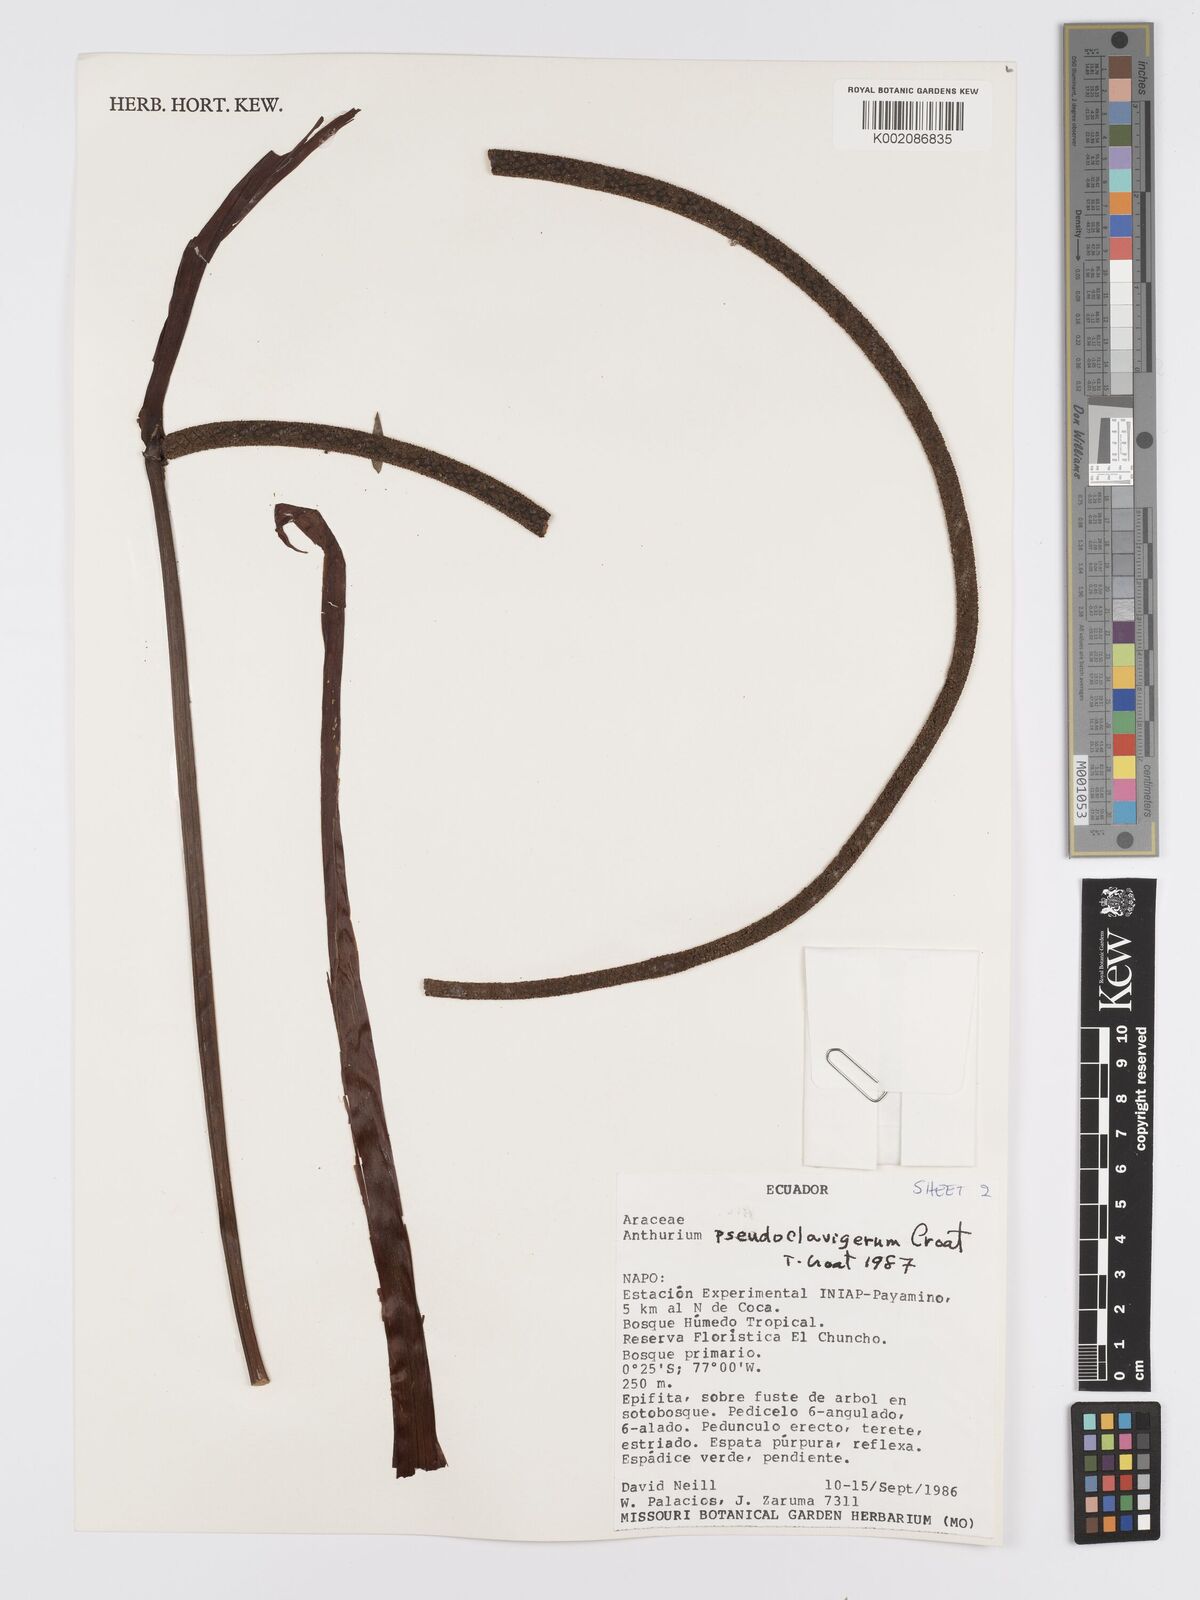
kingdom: Plantae
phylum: Tracheophyta
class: Liliopsida
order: Alismatales
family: Araceae
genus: Anthurium
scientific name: Anthurium
